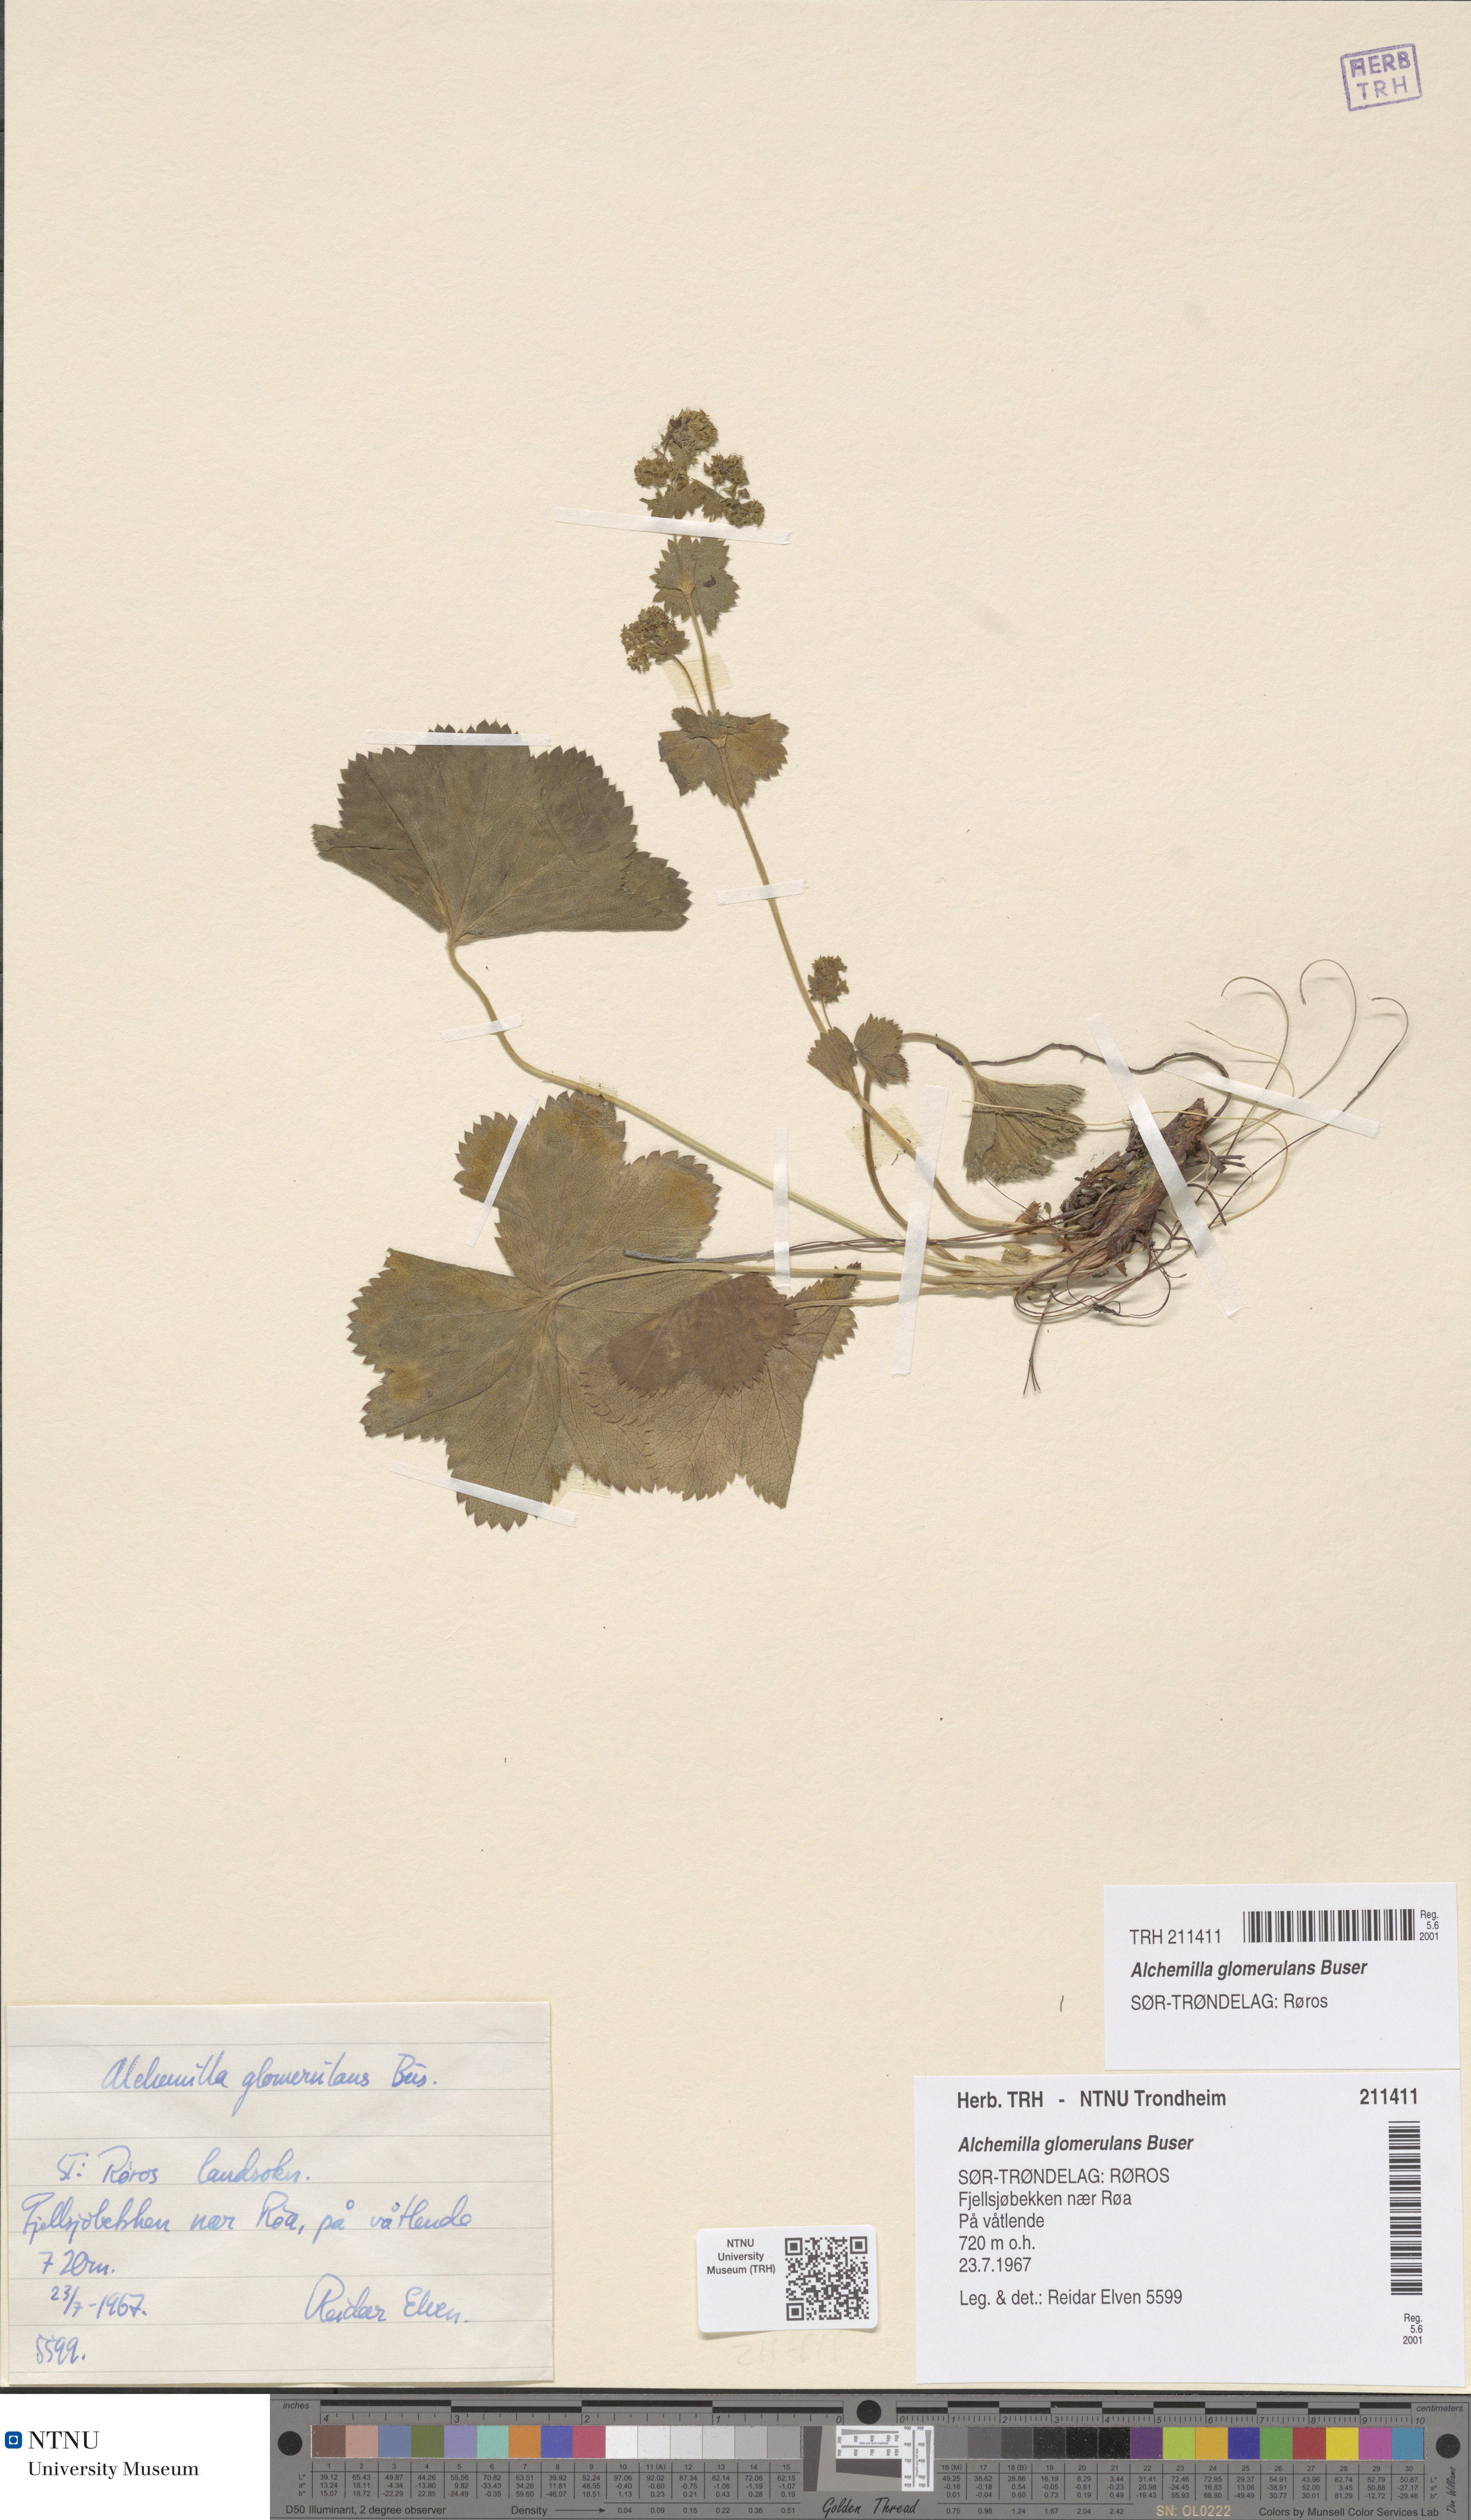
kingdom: Plantae
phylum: Tracheophyta
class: Magnoliopsida
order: Rosales
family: Rosaceae
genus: Alchemilla
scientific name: Alchemilla glomerulans
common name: Clustered lady's mantle
